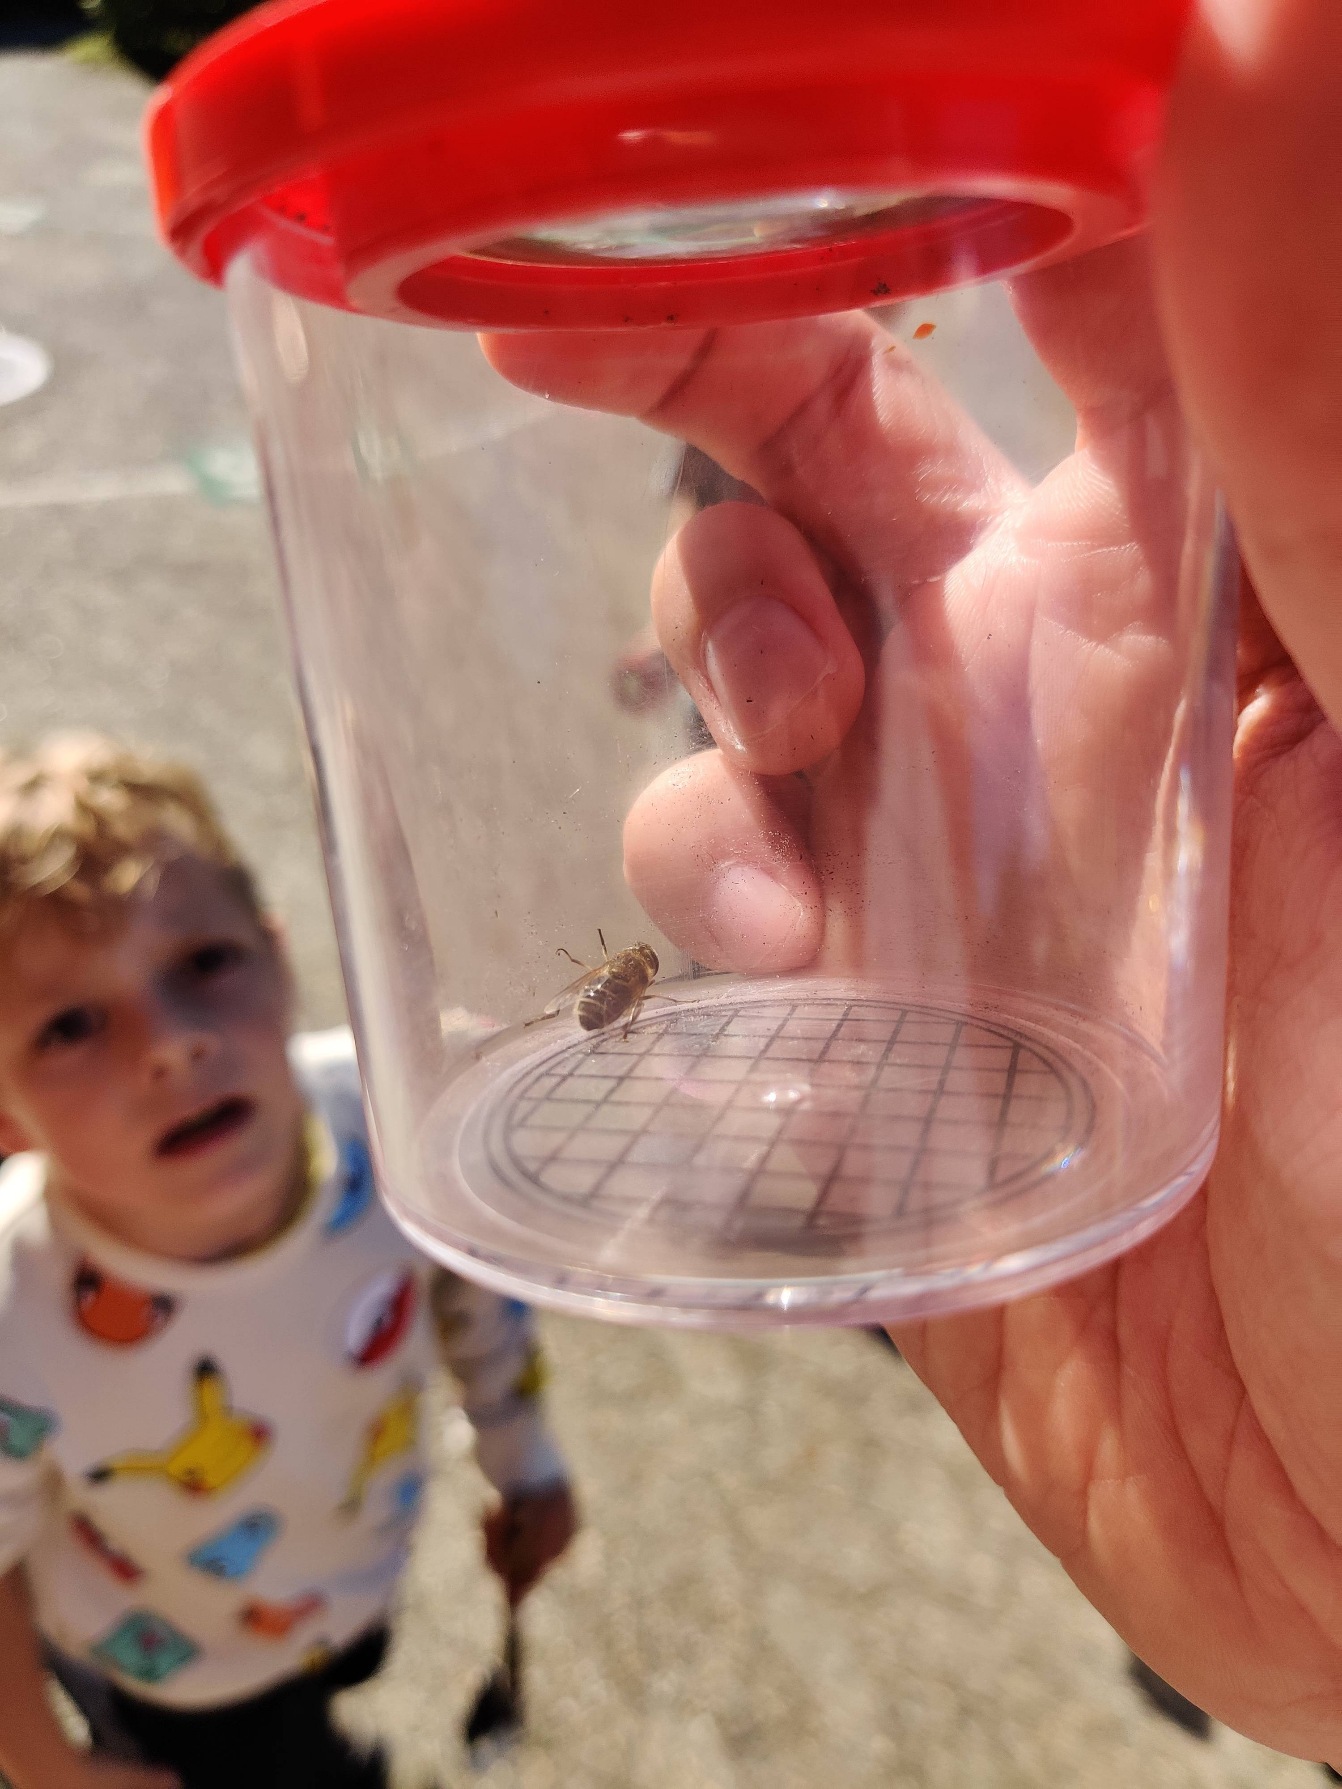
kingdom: Animalia
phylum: Arthropoda
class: Insecta
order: Diptera
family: Syrphidae
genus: Eristalis
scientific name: Eristalis
